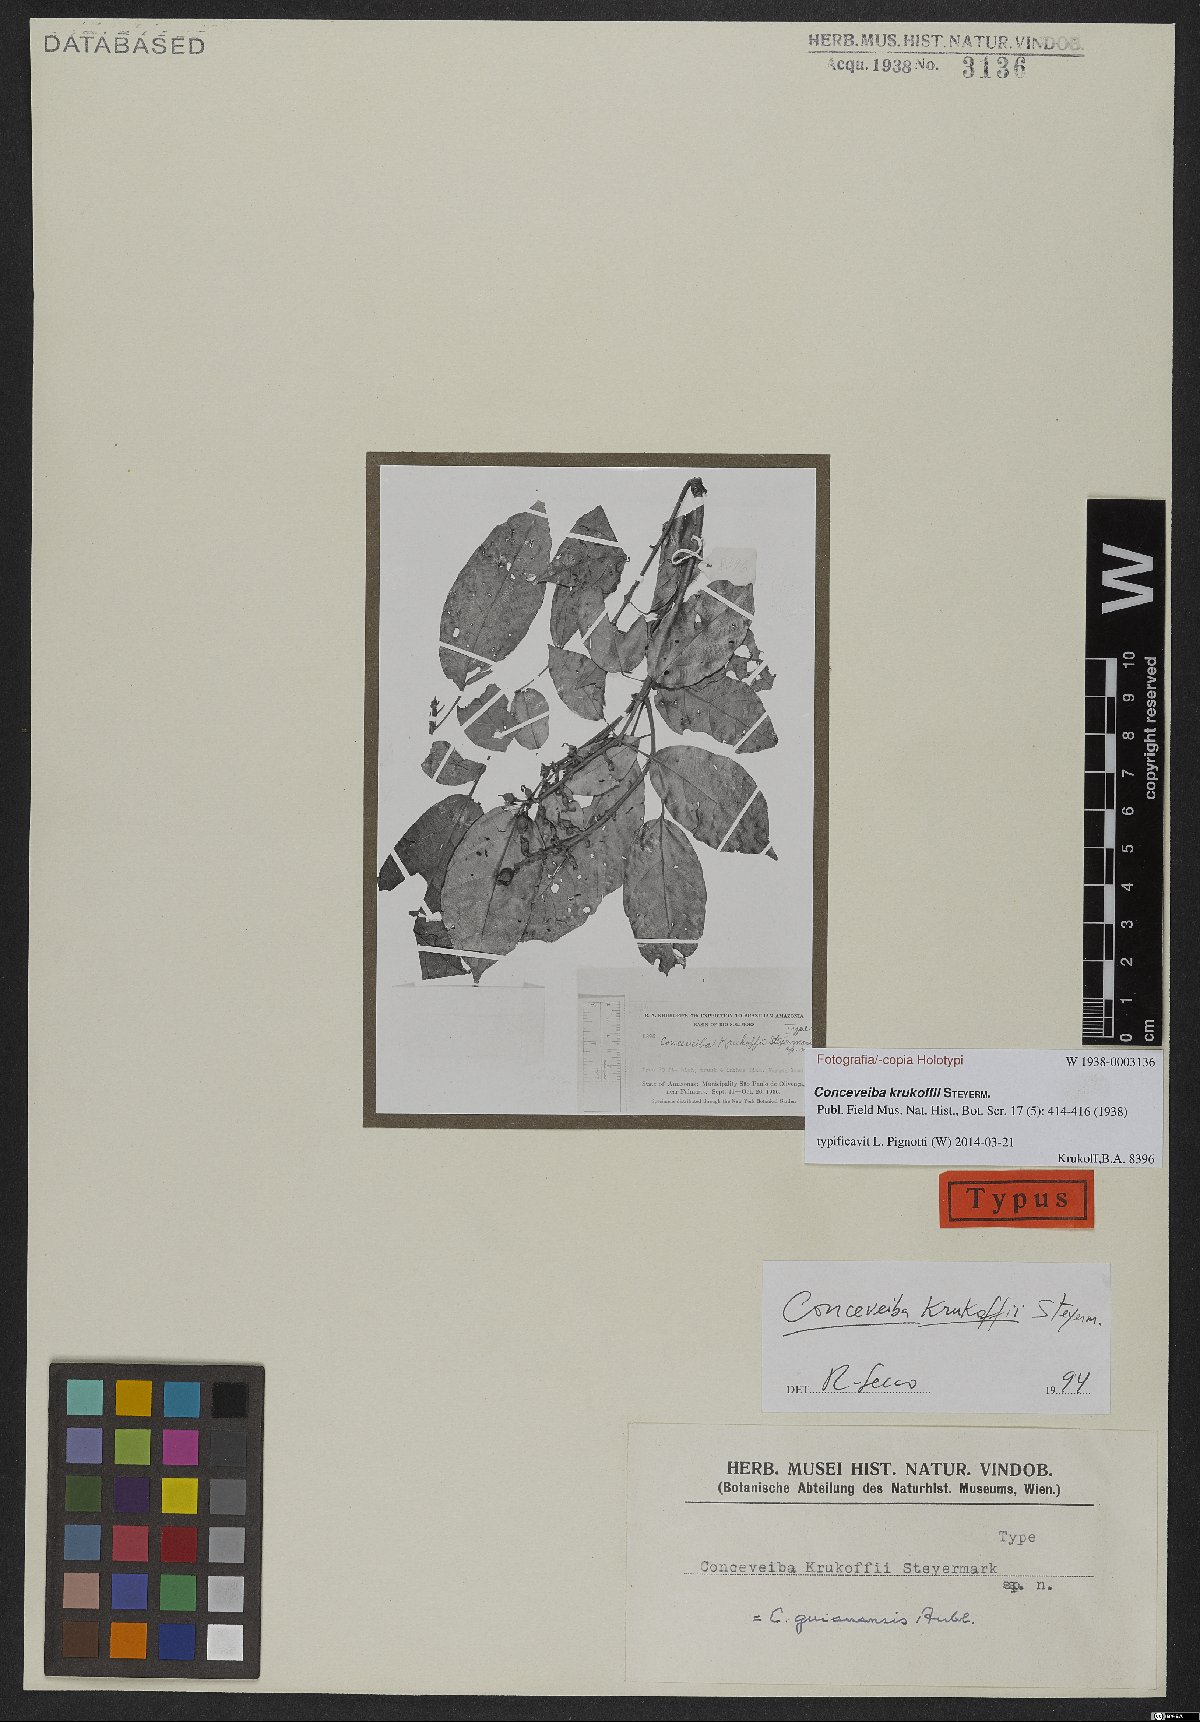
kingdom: Plantae
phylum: Tracheophyta
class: Magnoliopsida
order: Malpighiales
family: Euphorbiaceae
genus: Conceveiba
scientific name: Conceveiba krukoffii
